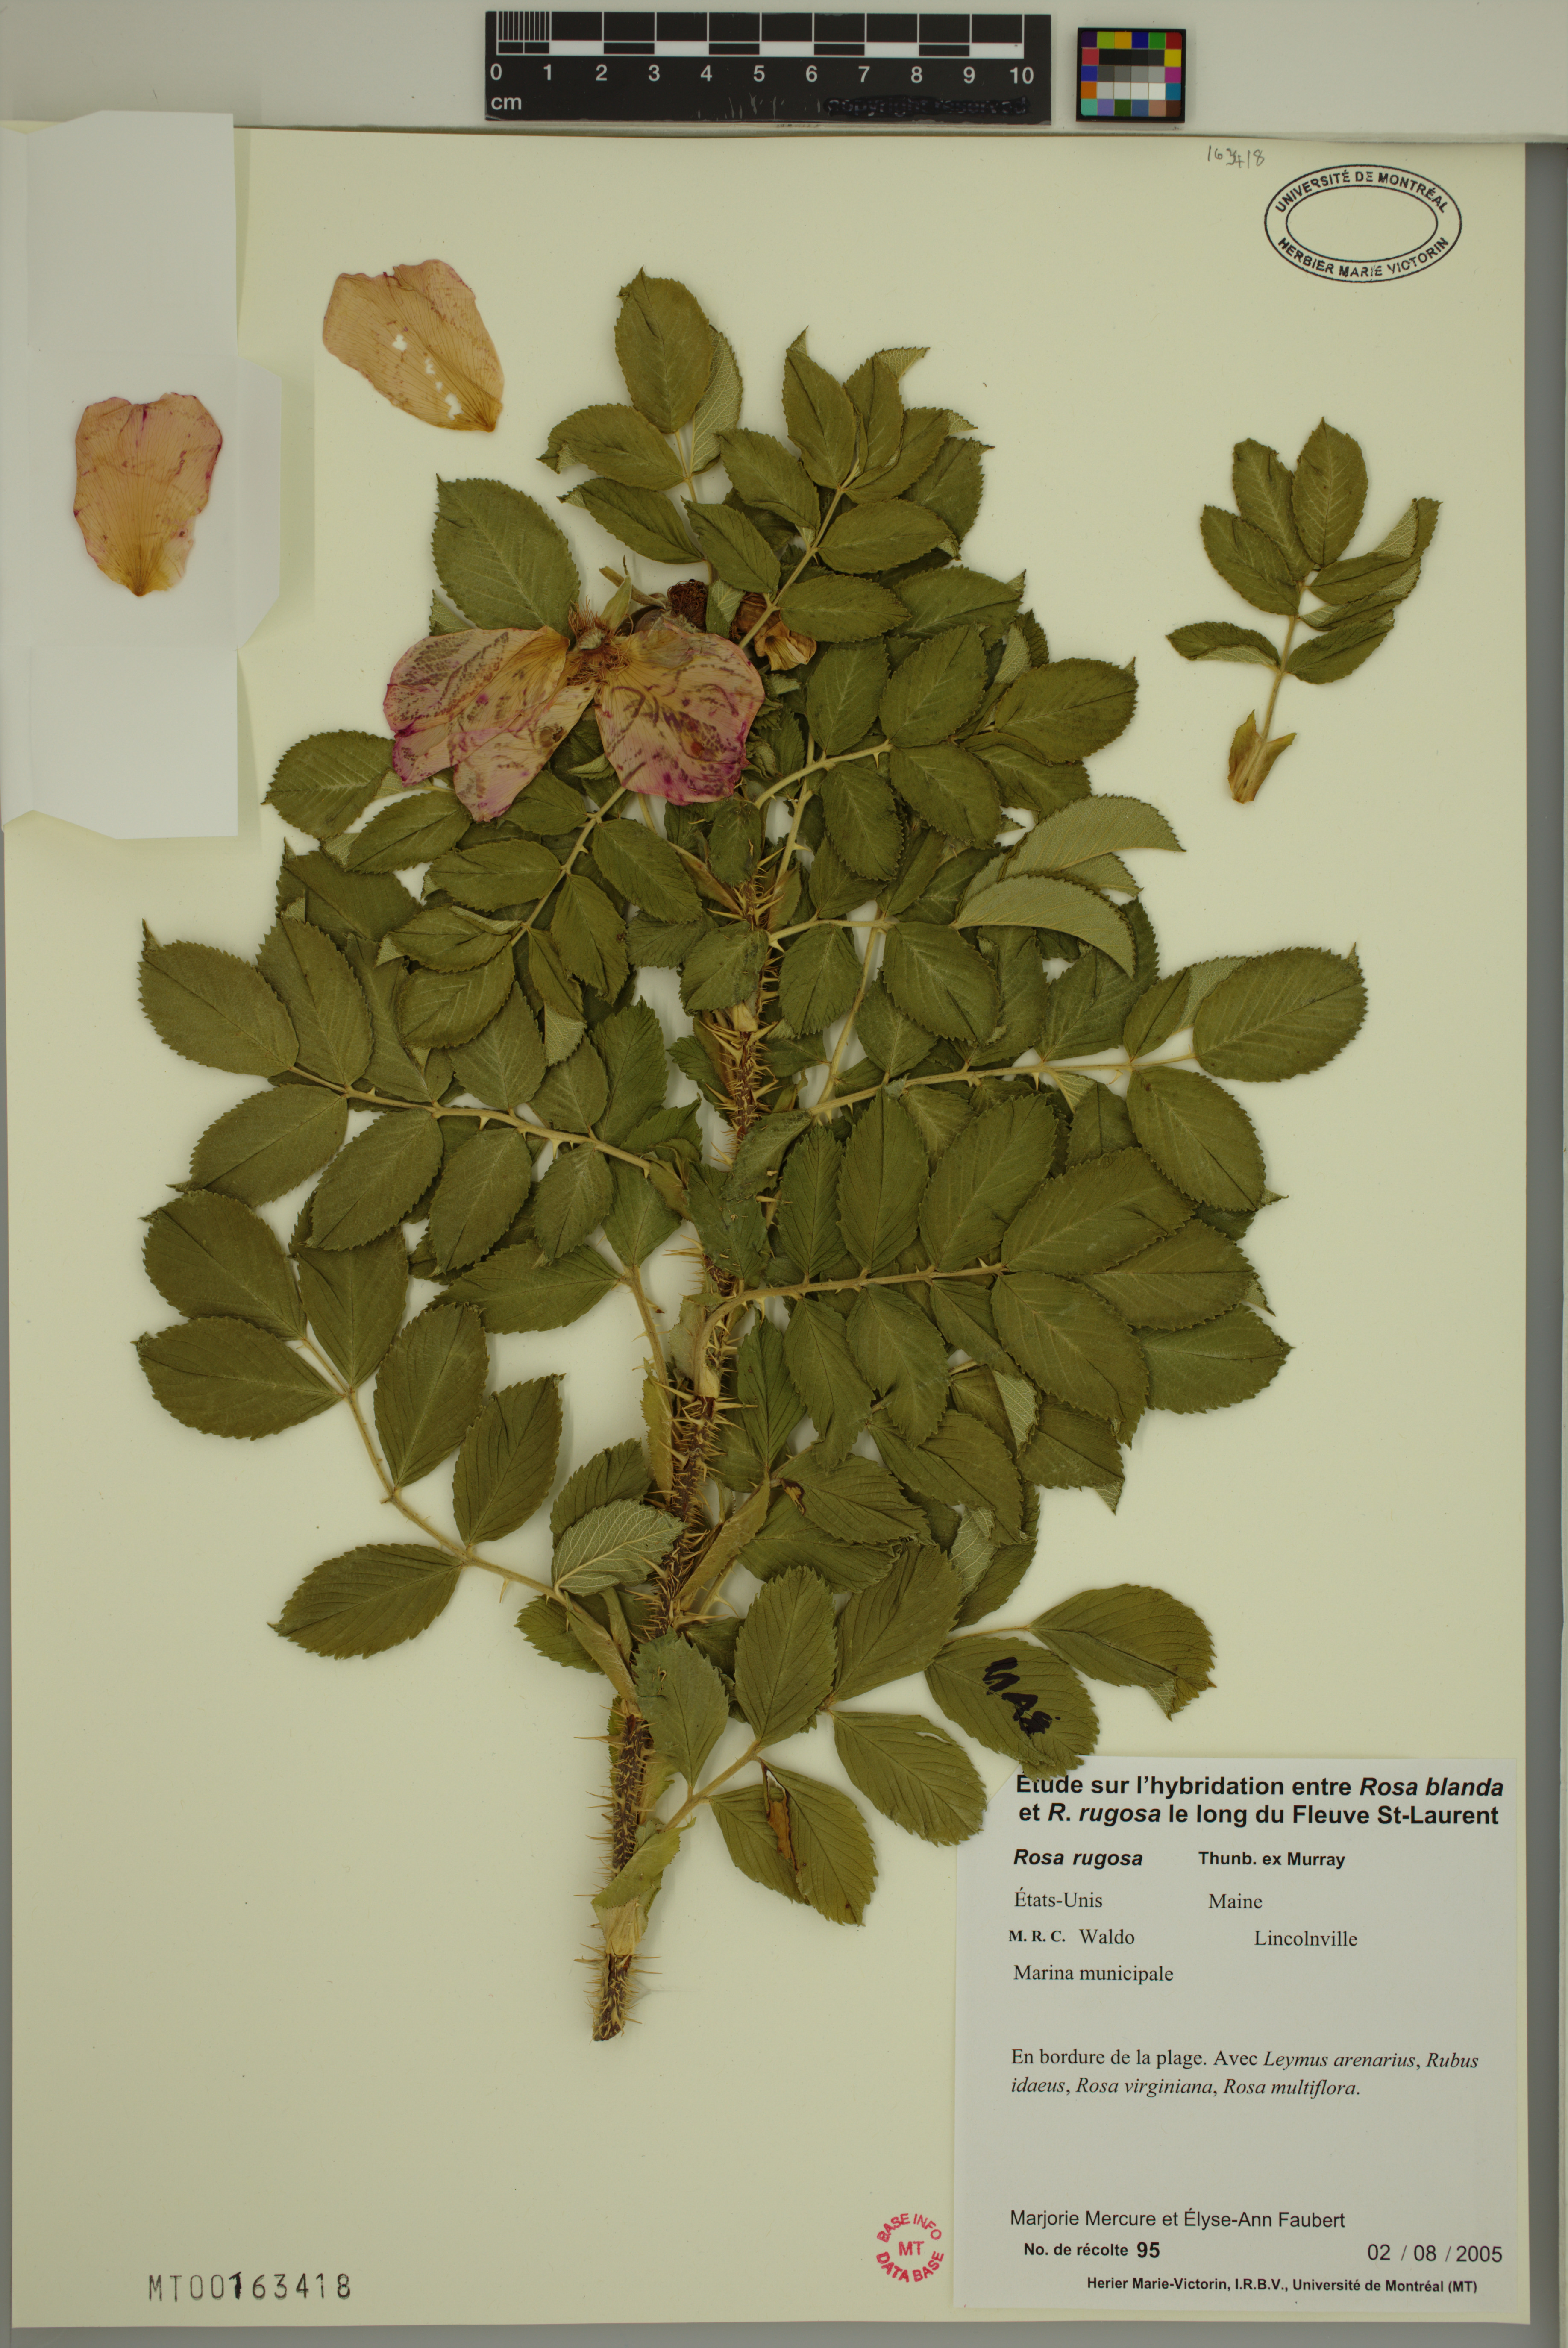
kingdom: Plantae
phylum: Tracheophyta
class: Magnoliopsida
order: Rosales
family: Rosaceae
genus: Rosa
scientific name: Rosa rugosa
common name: Japanese rose
